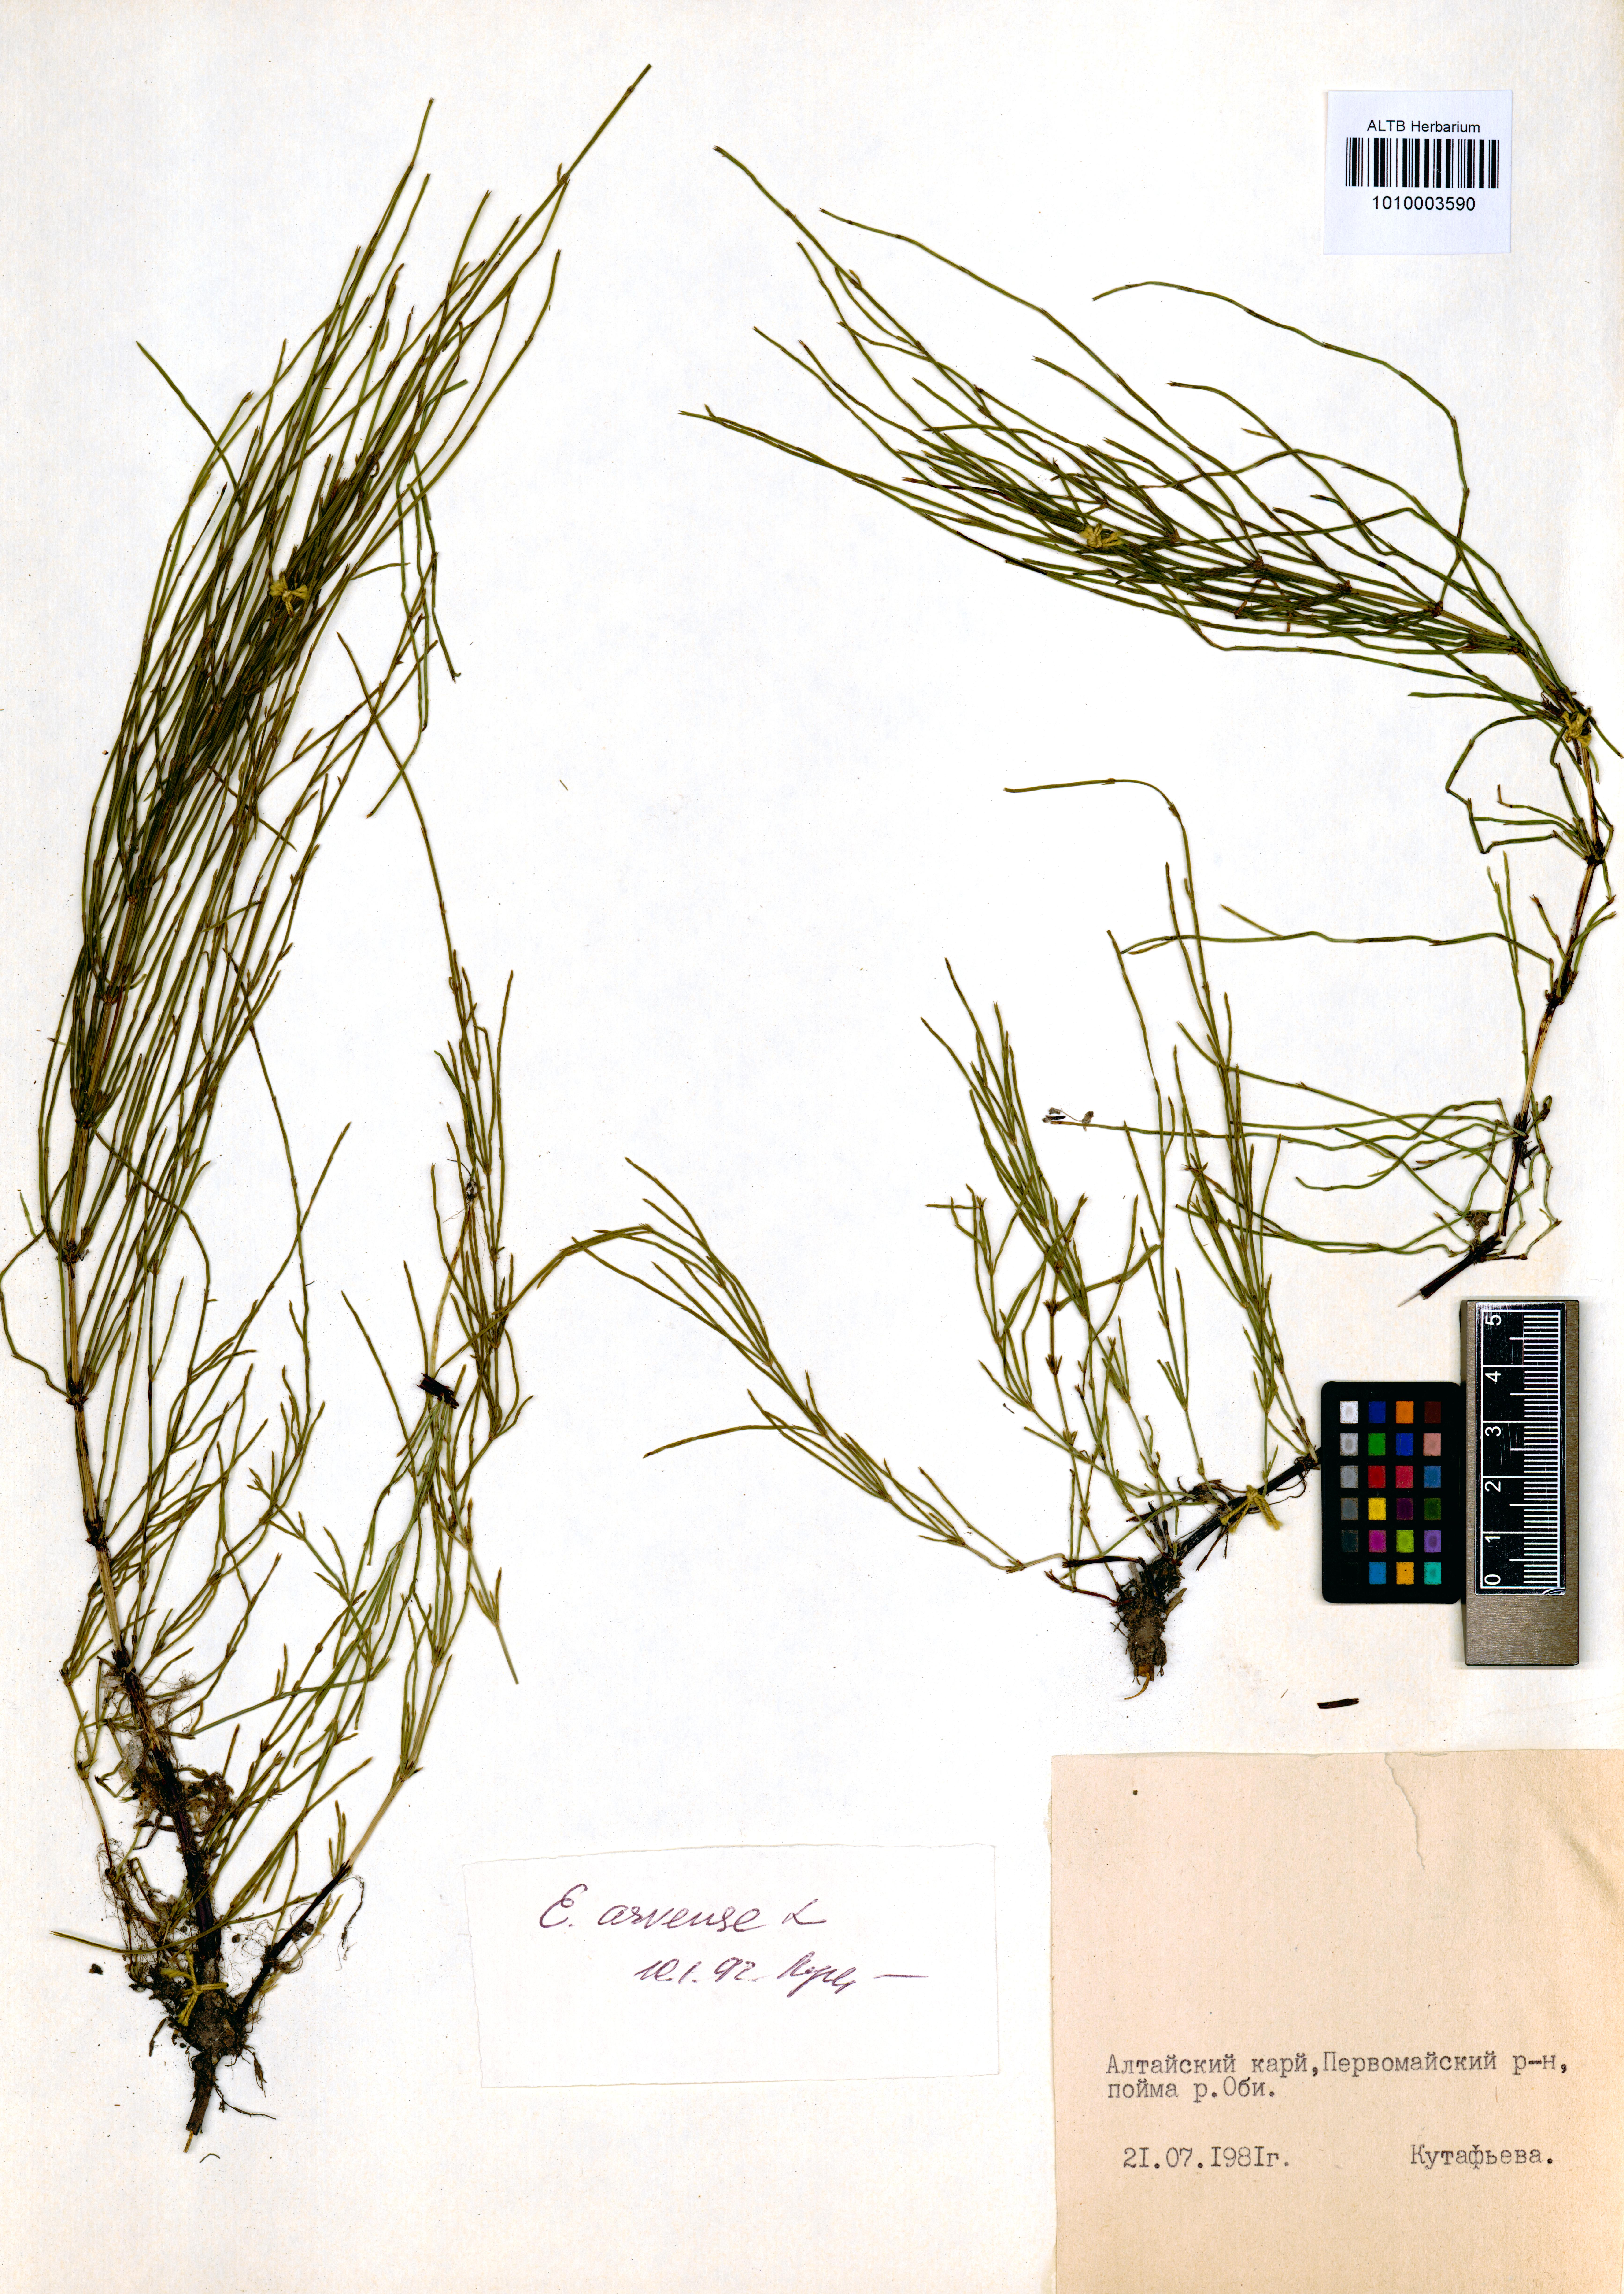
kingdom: Plantae
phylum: Tracheophyta
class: Polypodiopsida
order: Equisetales
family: Equisetaceae
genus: Equisetum
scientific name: Equisetum arvense
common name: Field horsetail
